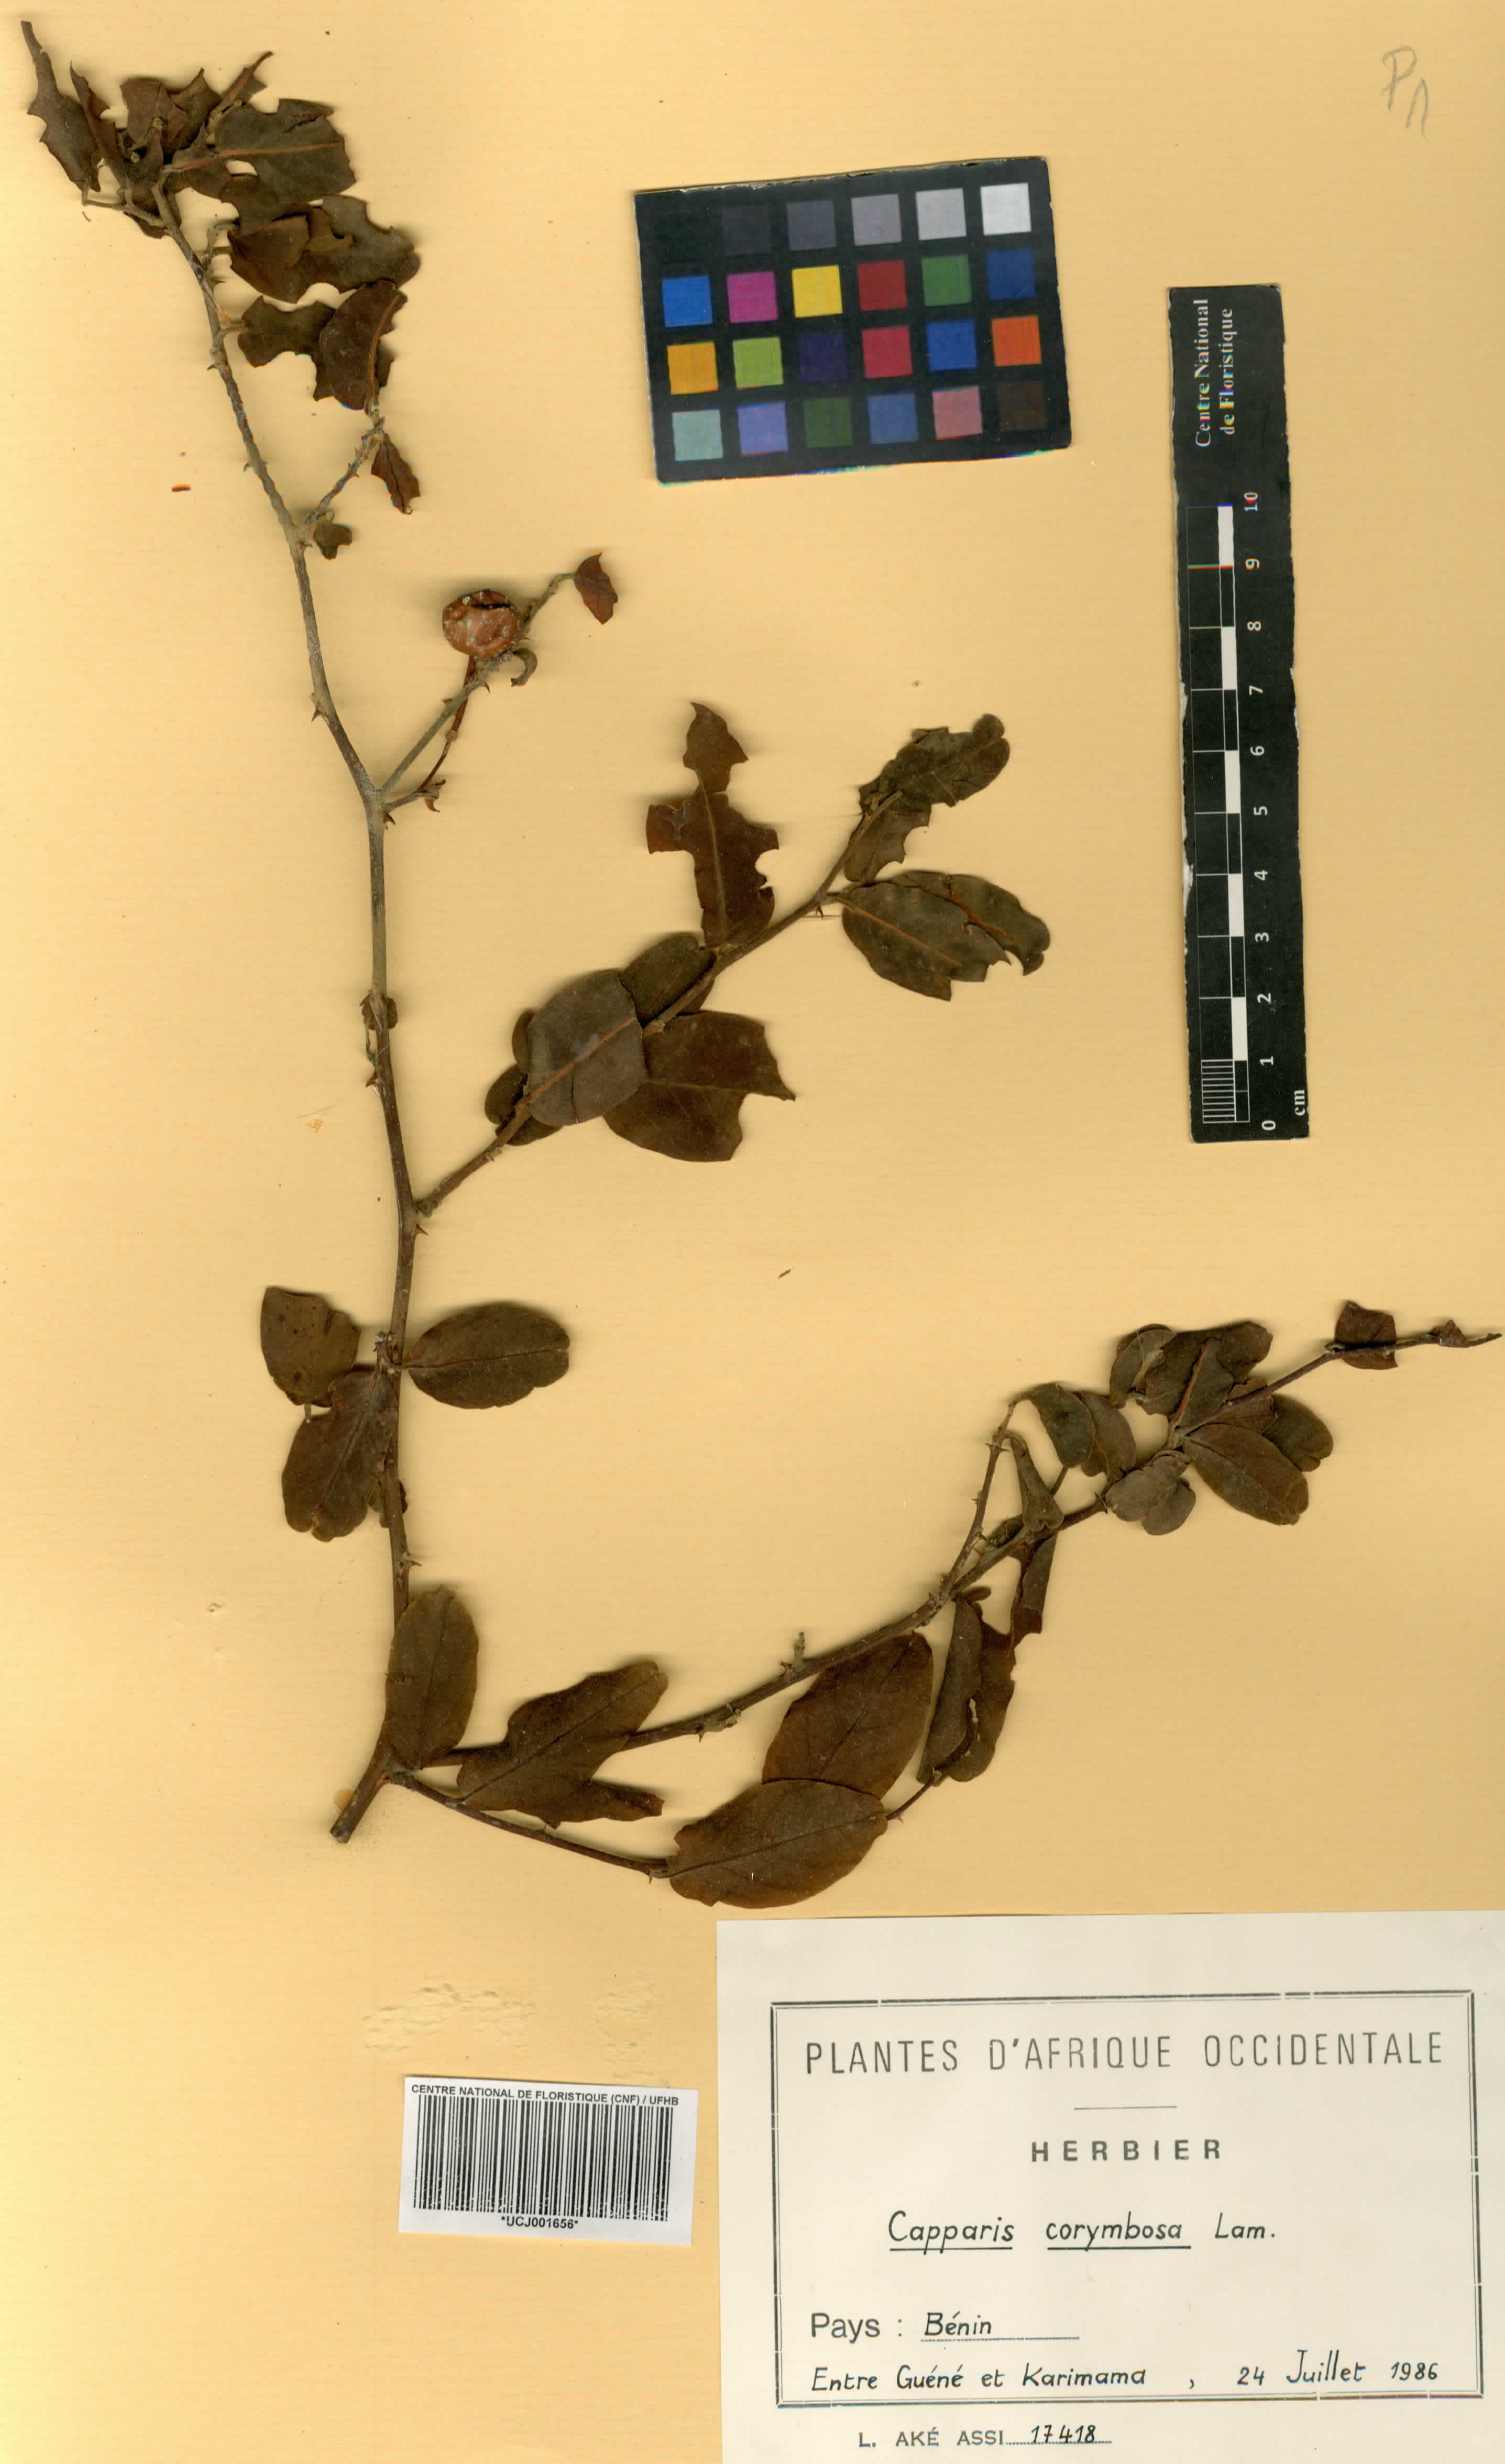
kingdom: Plantae
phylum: Tracheophyta
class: Magnoliopsida
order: Brassicales
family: Capparaceae
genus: Capparis
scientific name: Capparis corymbosa
